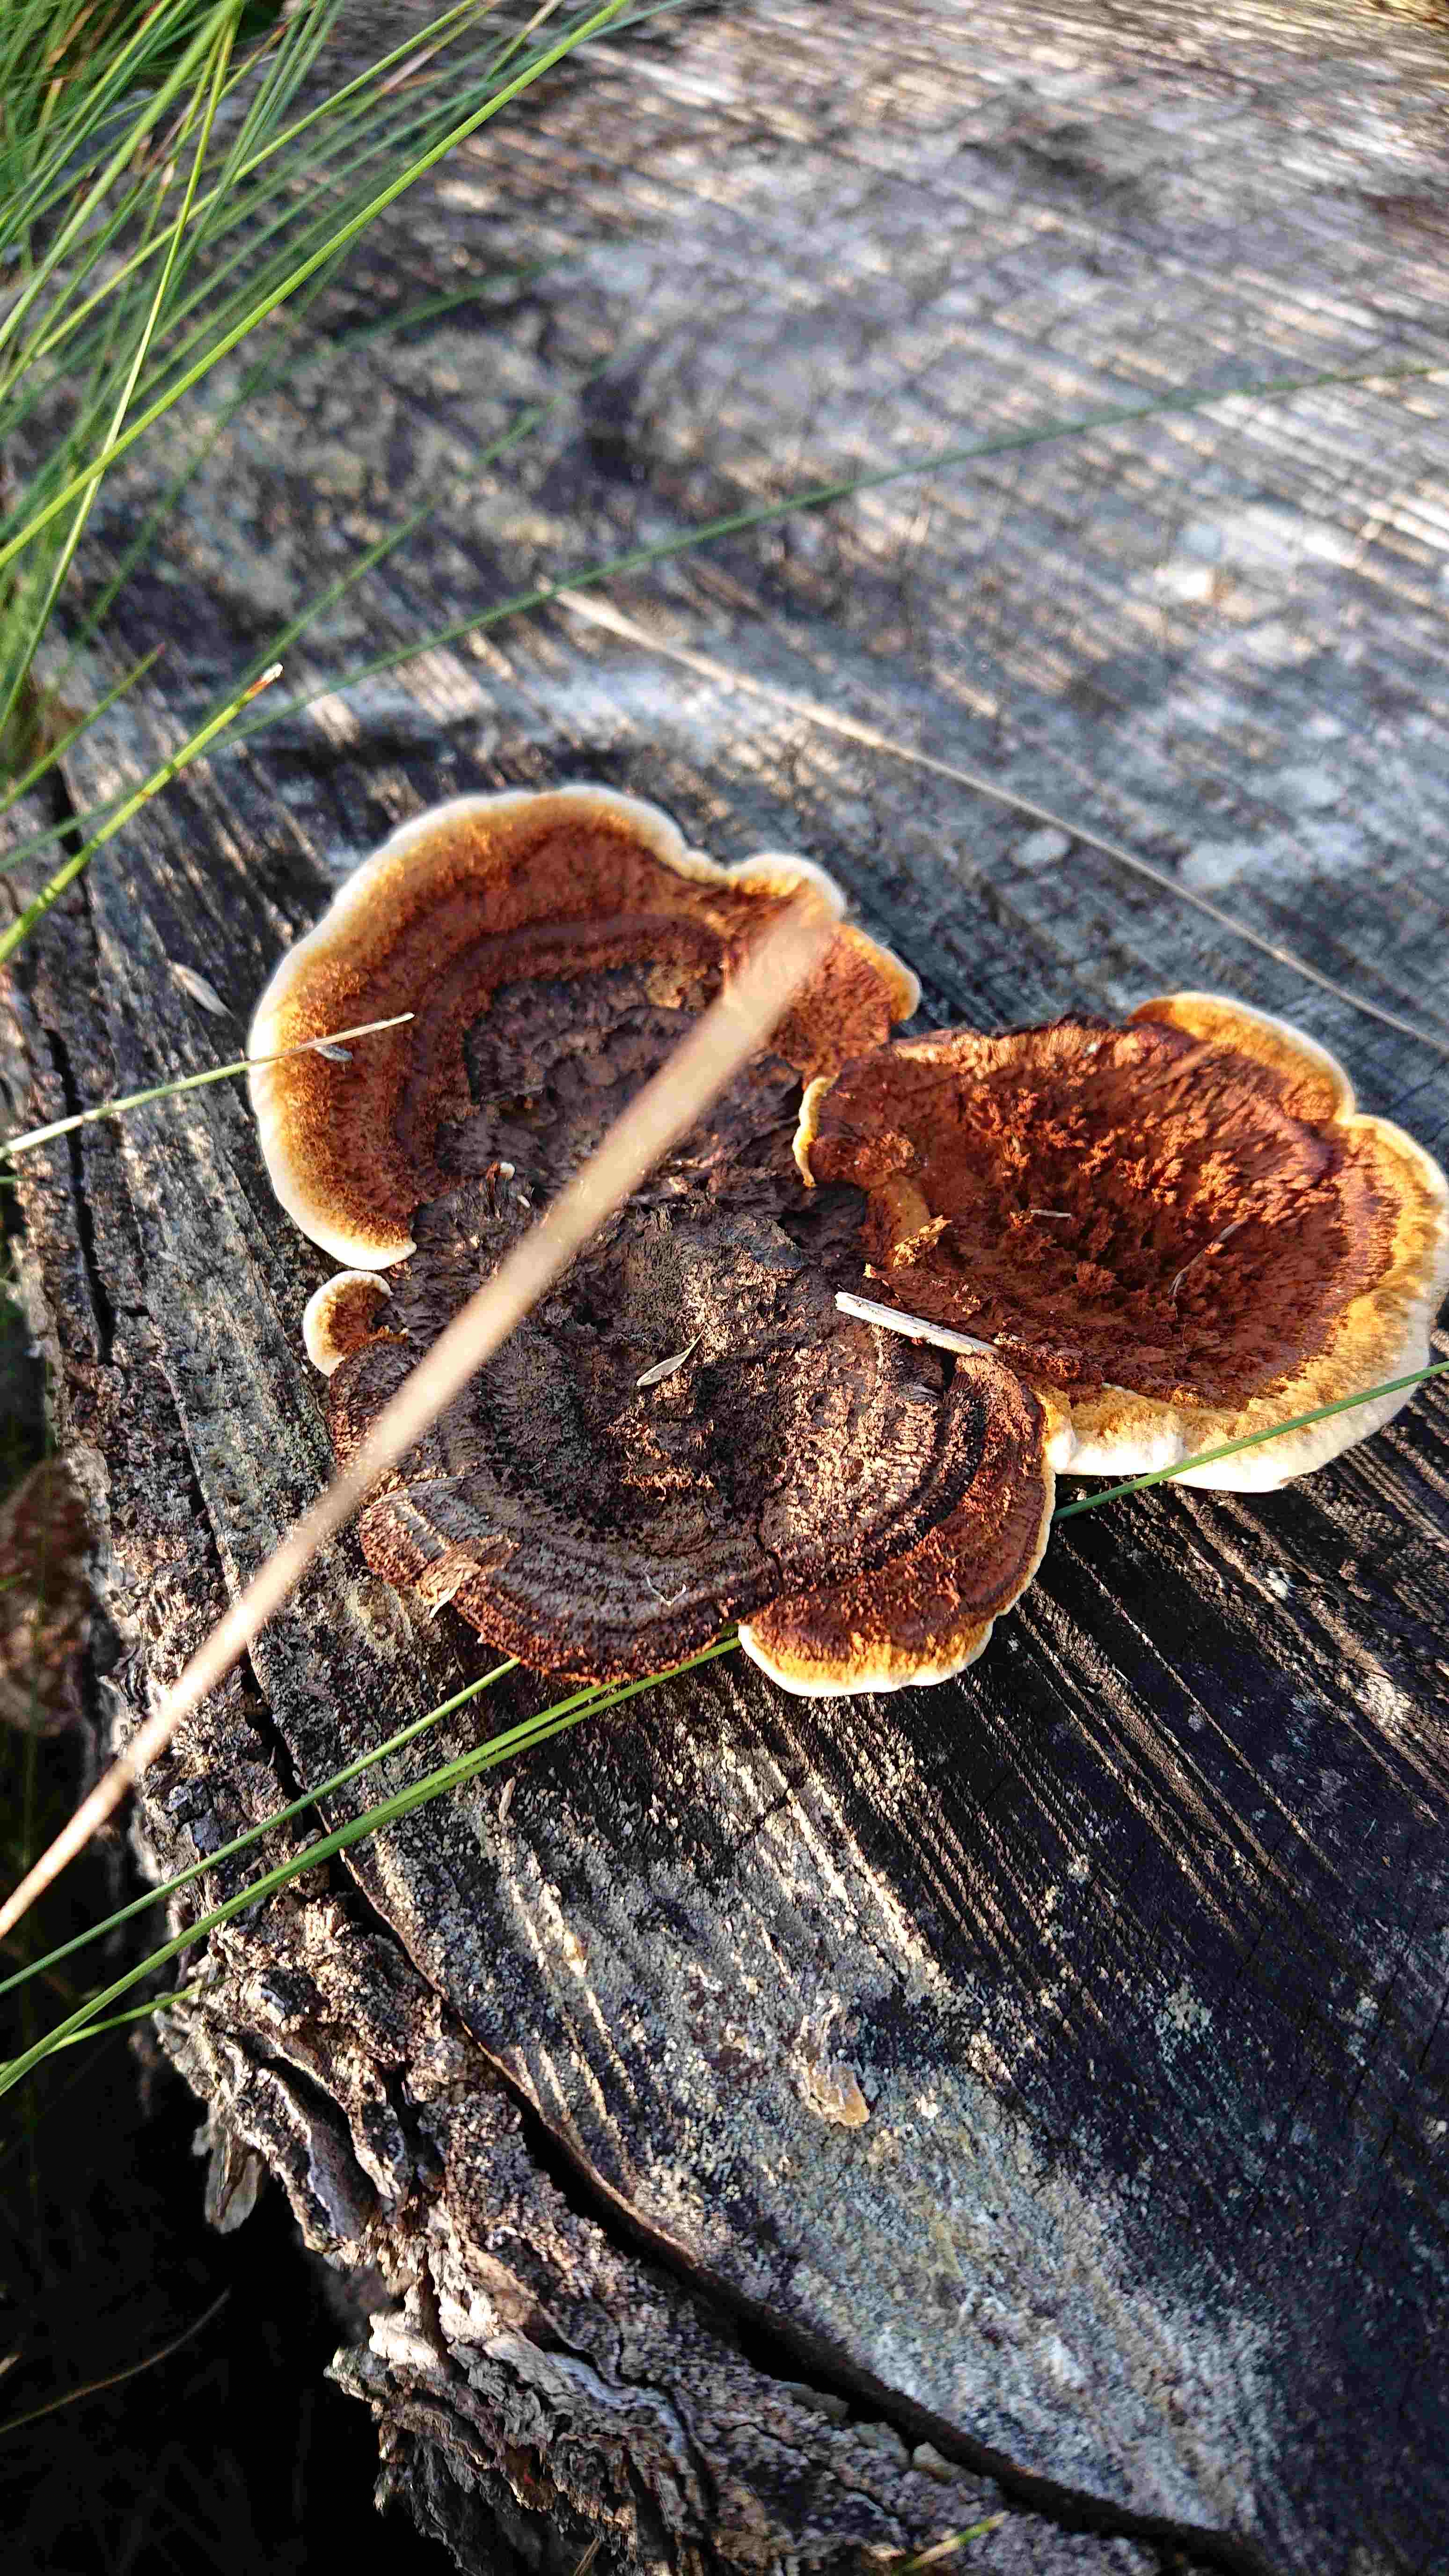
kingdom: Fungi
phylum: Basidiomycota
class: Agaricomycetes
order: Gloeophyllales
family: Gloeophyllaceae
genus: Gloeophyllum
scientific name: Gloeophyllum sepiarium
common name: fyrre-korkhat
